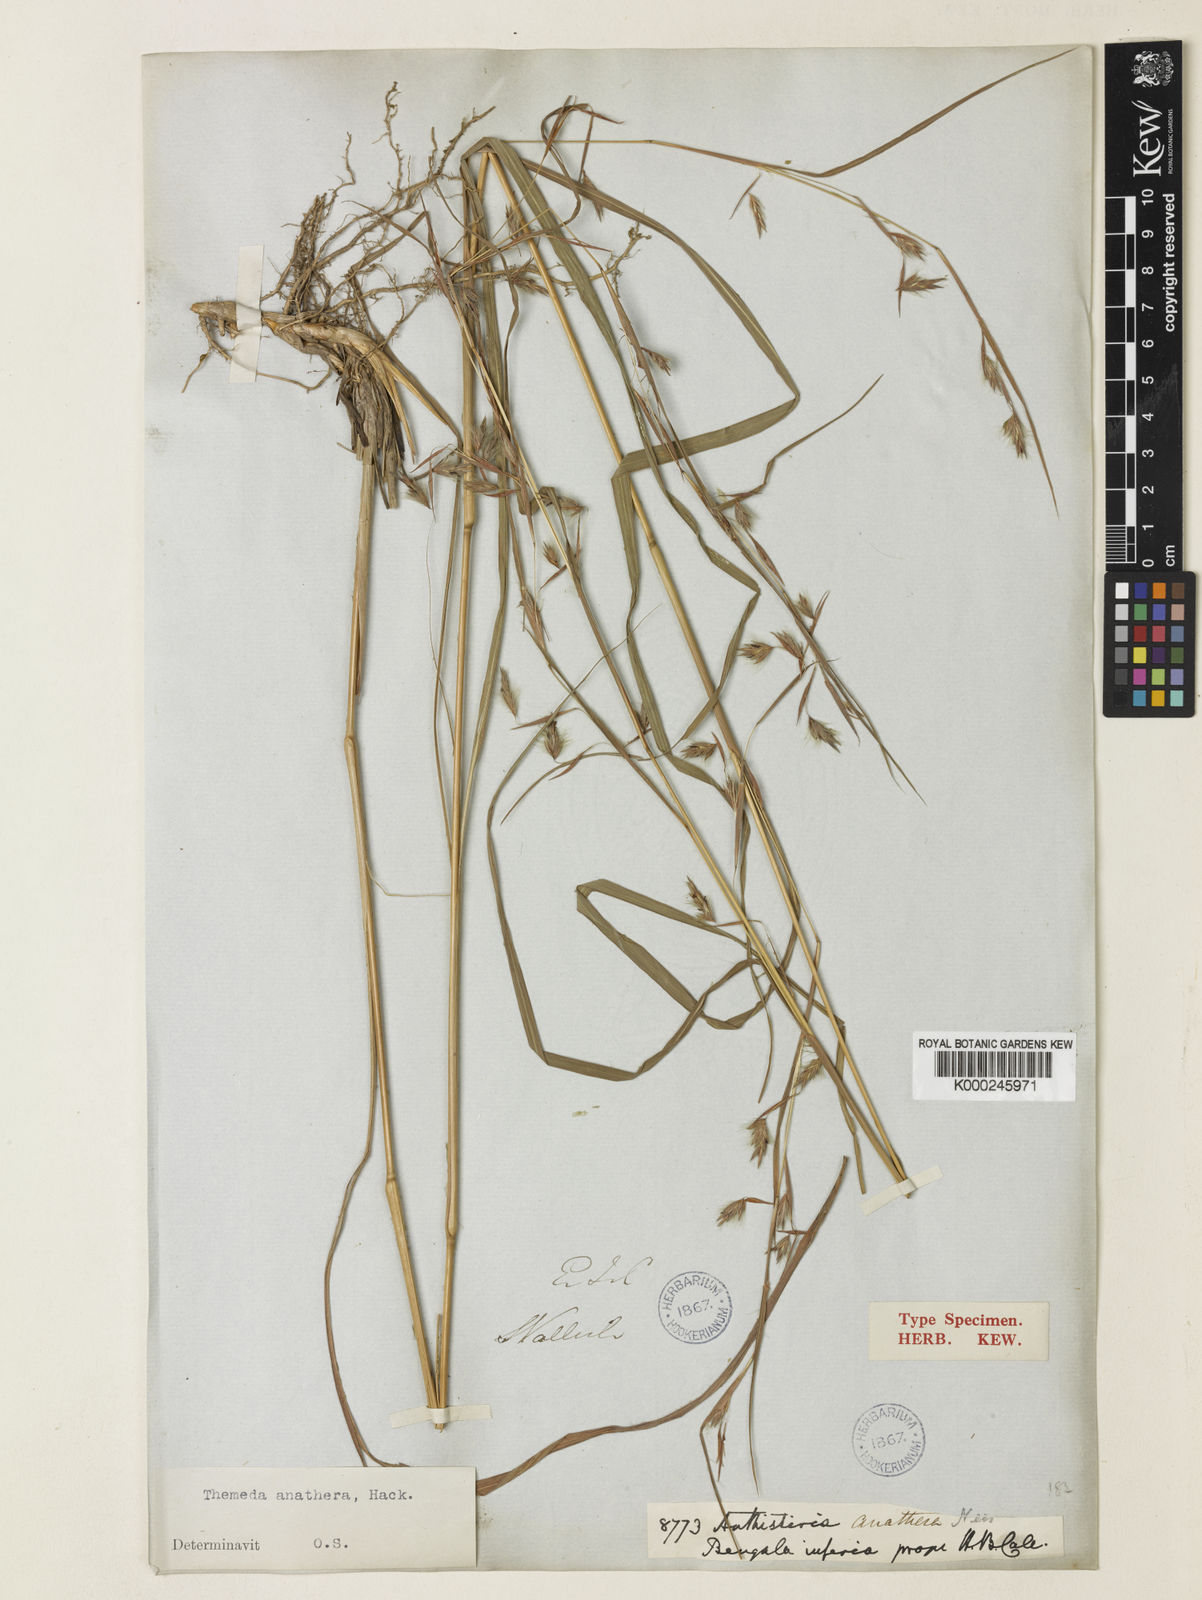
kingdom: Plantae
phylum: Tracheophyta
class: Liliopsida
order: Poales
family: Poaceae
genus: Themeda
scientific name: Themeda anathera
